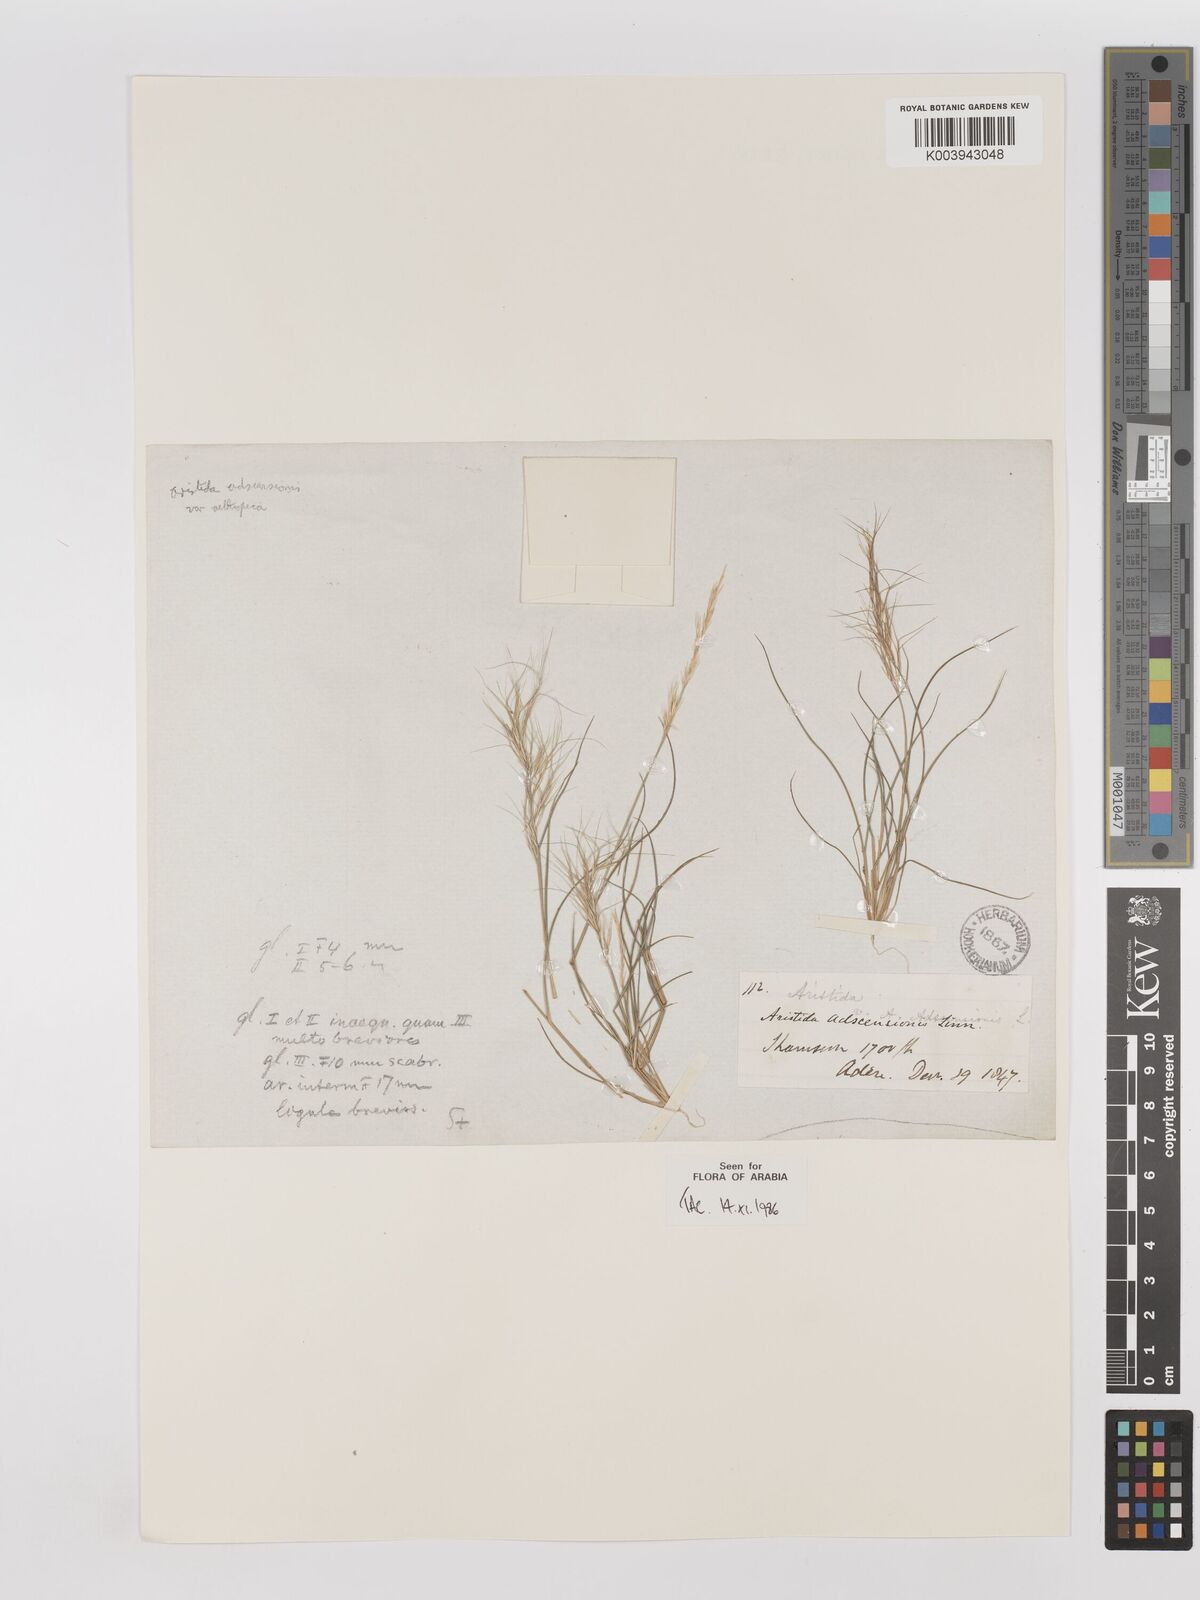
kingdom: Plantae
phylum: Tracheophyta
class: Liliopsida
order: Poales
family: Poaceae
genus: Aristida
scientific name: Aristida adscensionis
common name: Sixweeks threeawn
